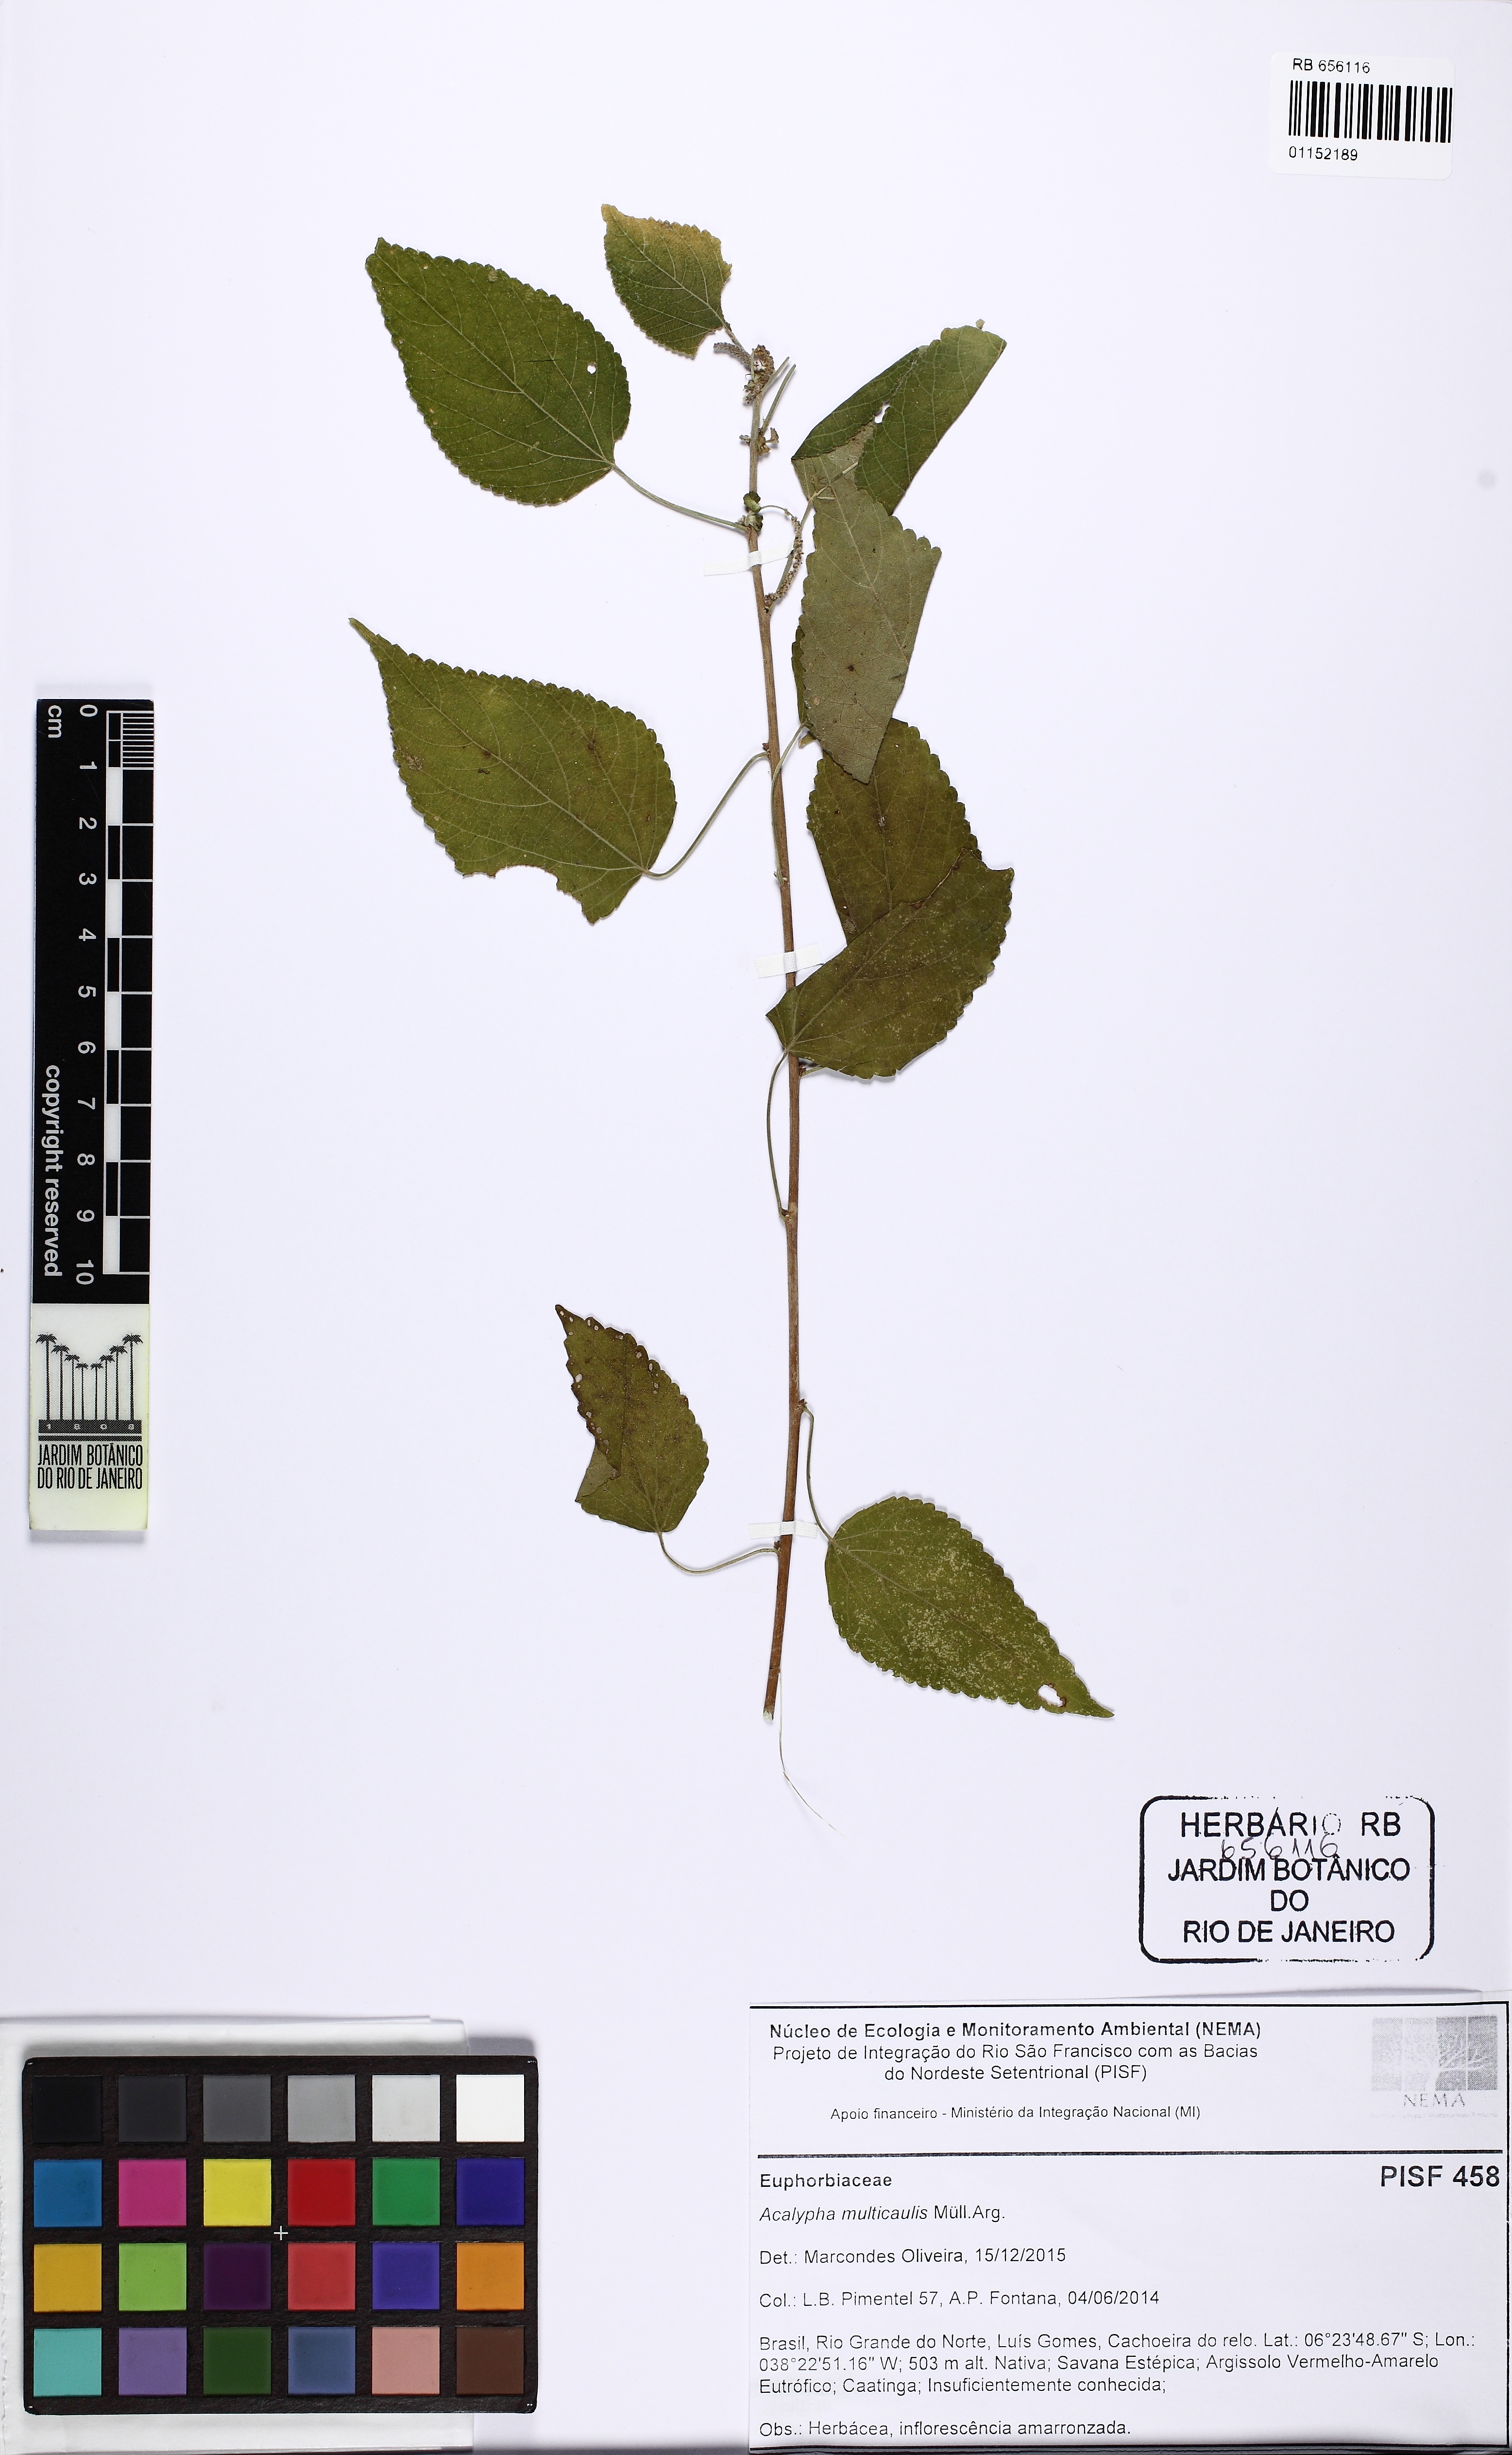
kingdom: Plantae
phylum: Tracheophyta
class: Magnoliopsida
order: Malpighiales
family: Euphorbiaceae
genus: Acalypha
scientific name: Acalypha multicaulis
